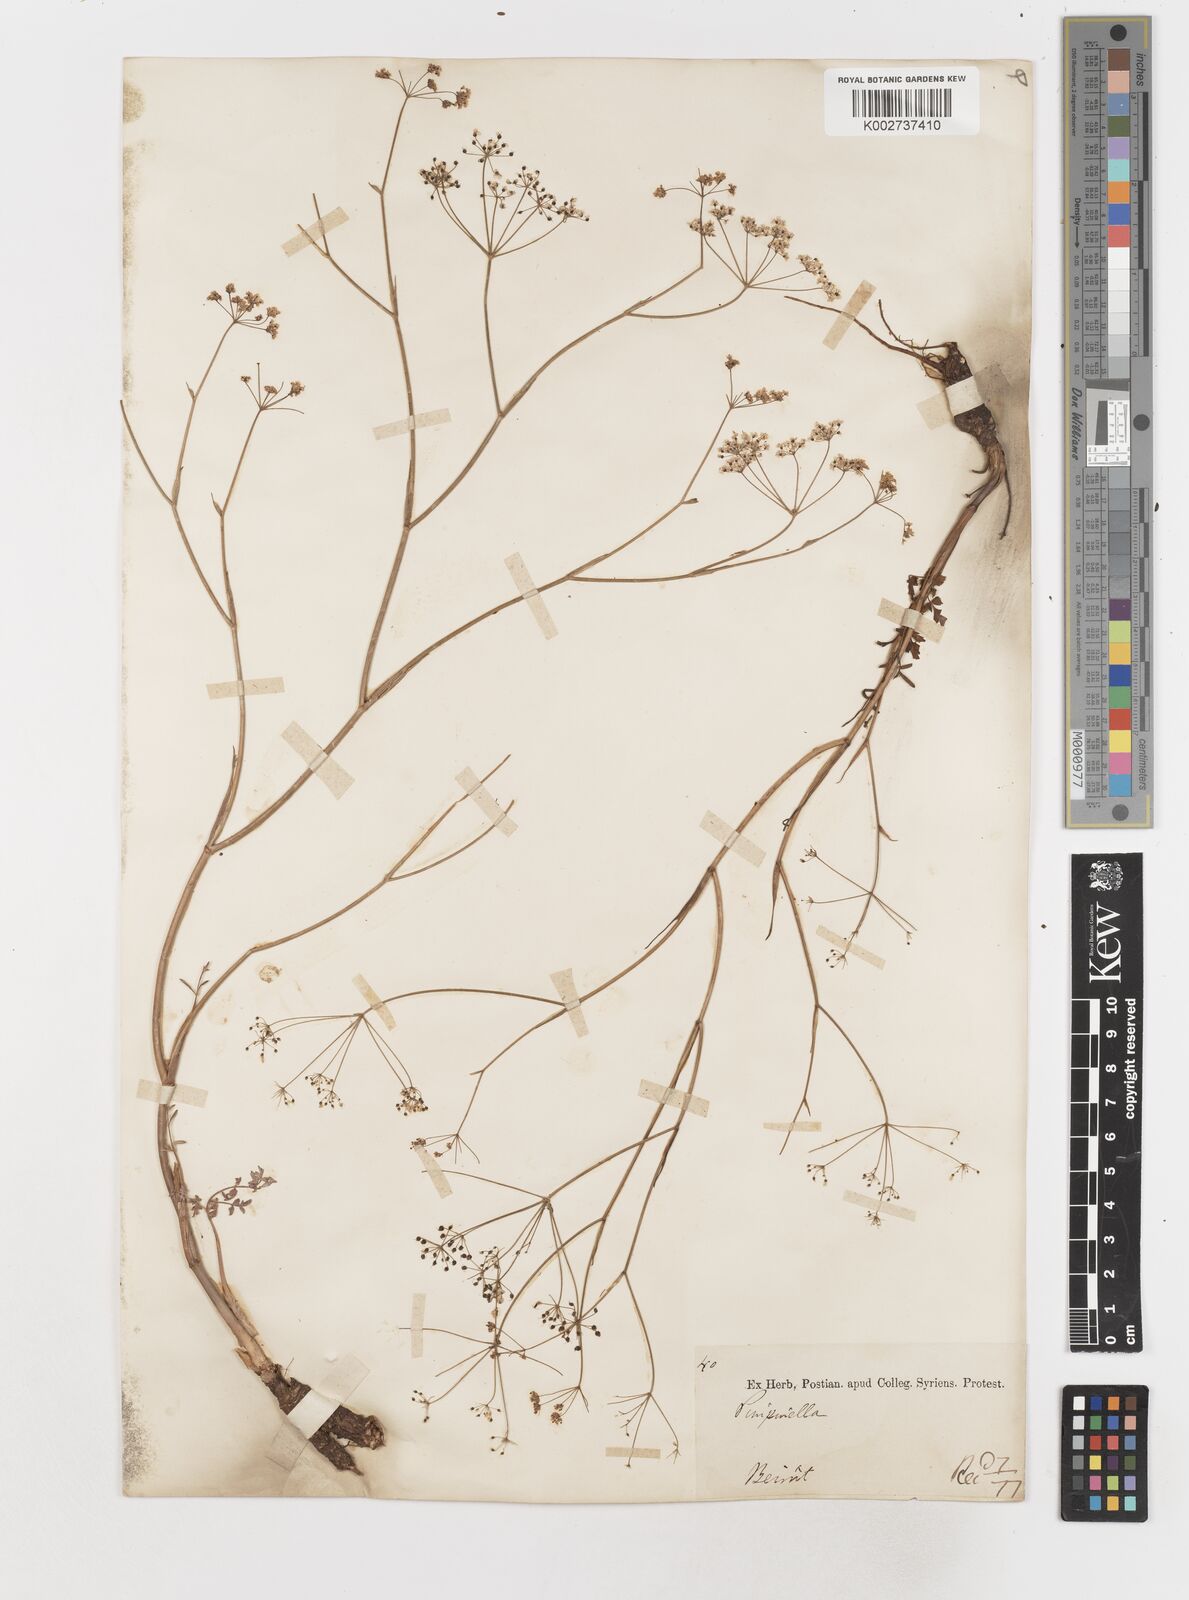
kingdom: Plantae
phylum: Tracheophyta
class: Magnoliopsida
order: Apiales
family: Apiaceae
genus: Elaeosticta
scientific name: Elaeosticta meifolia
